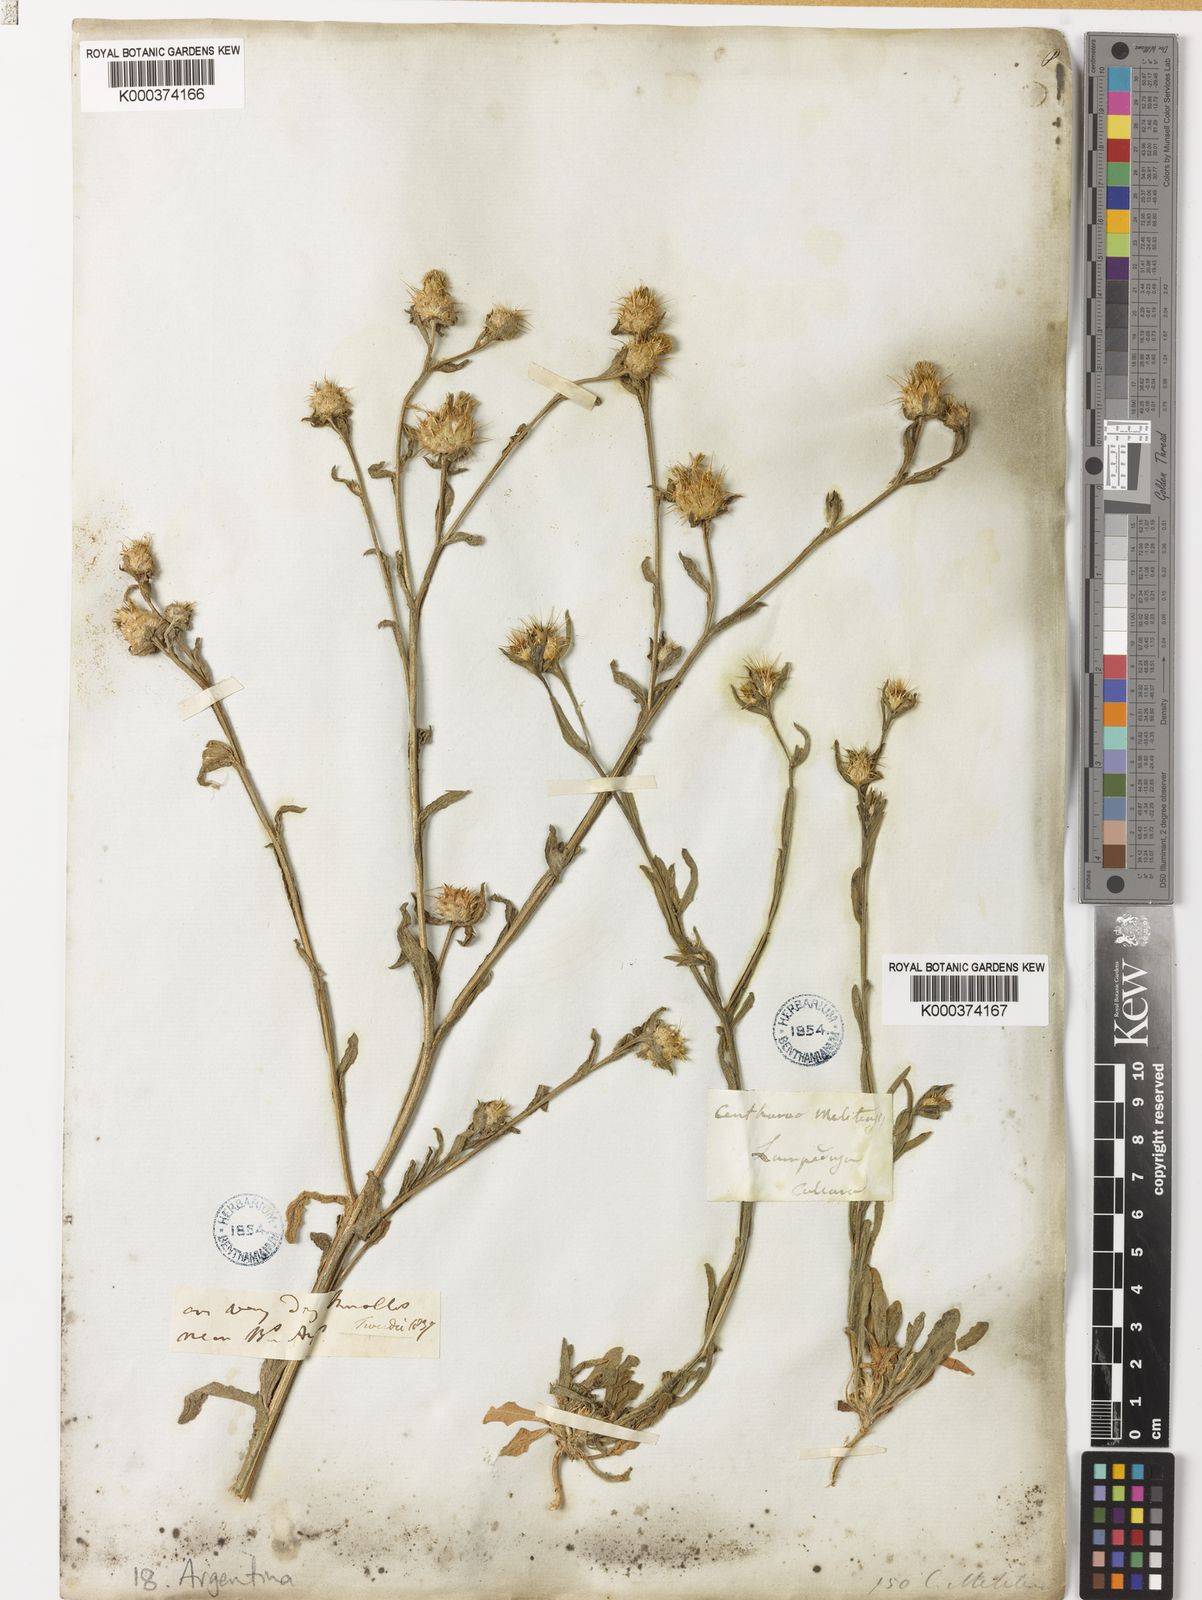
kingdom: Plantae
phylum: Tracheophyta
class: Magnoliopsida
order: Asterales
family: Asteraceae
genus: Centaurea
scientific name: Centaurea melitensis
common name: Maltese star-thistle
